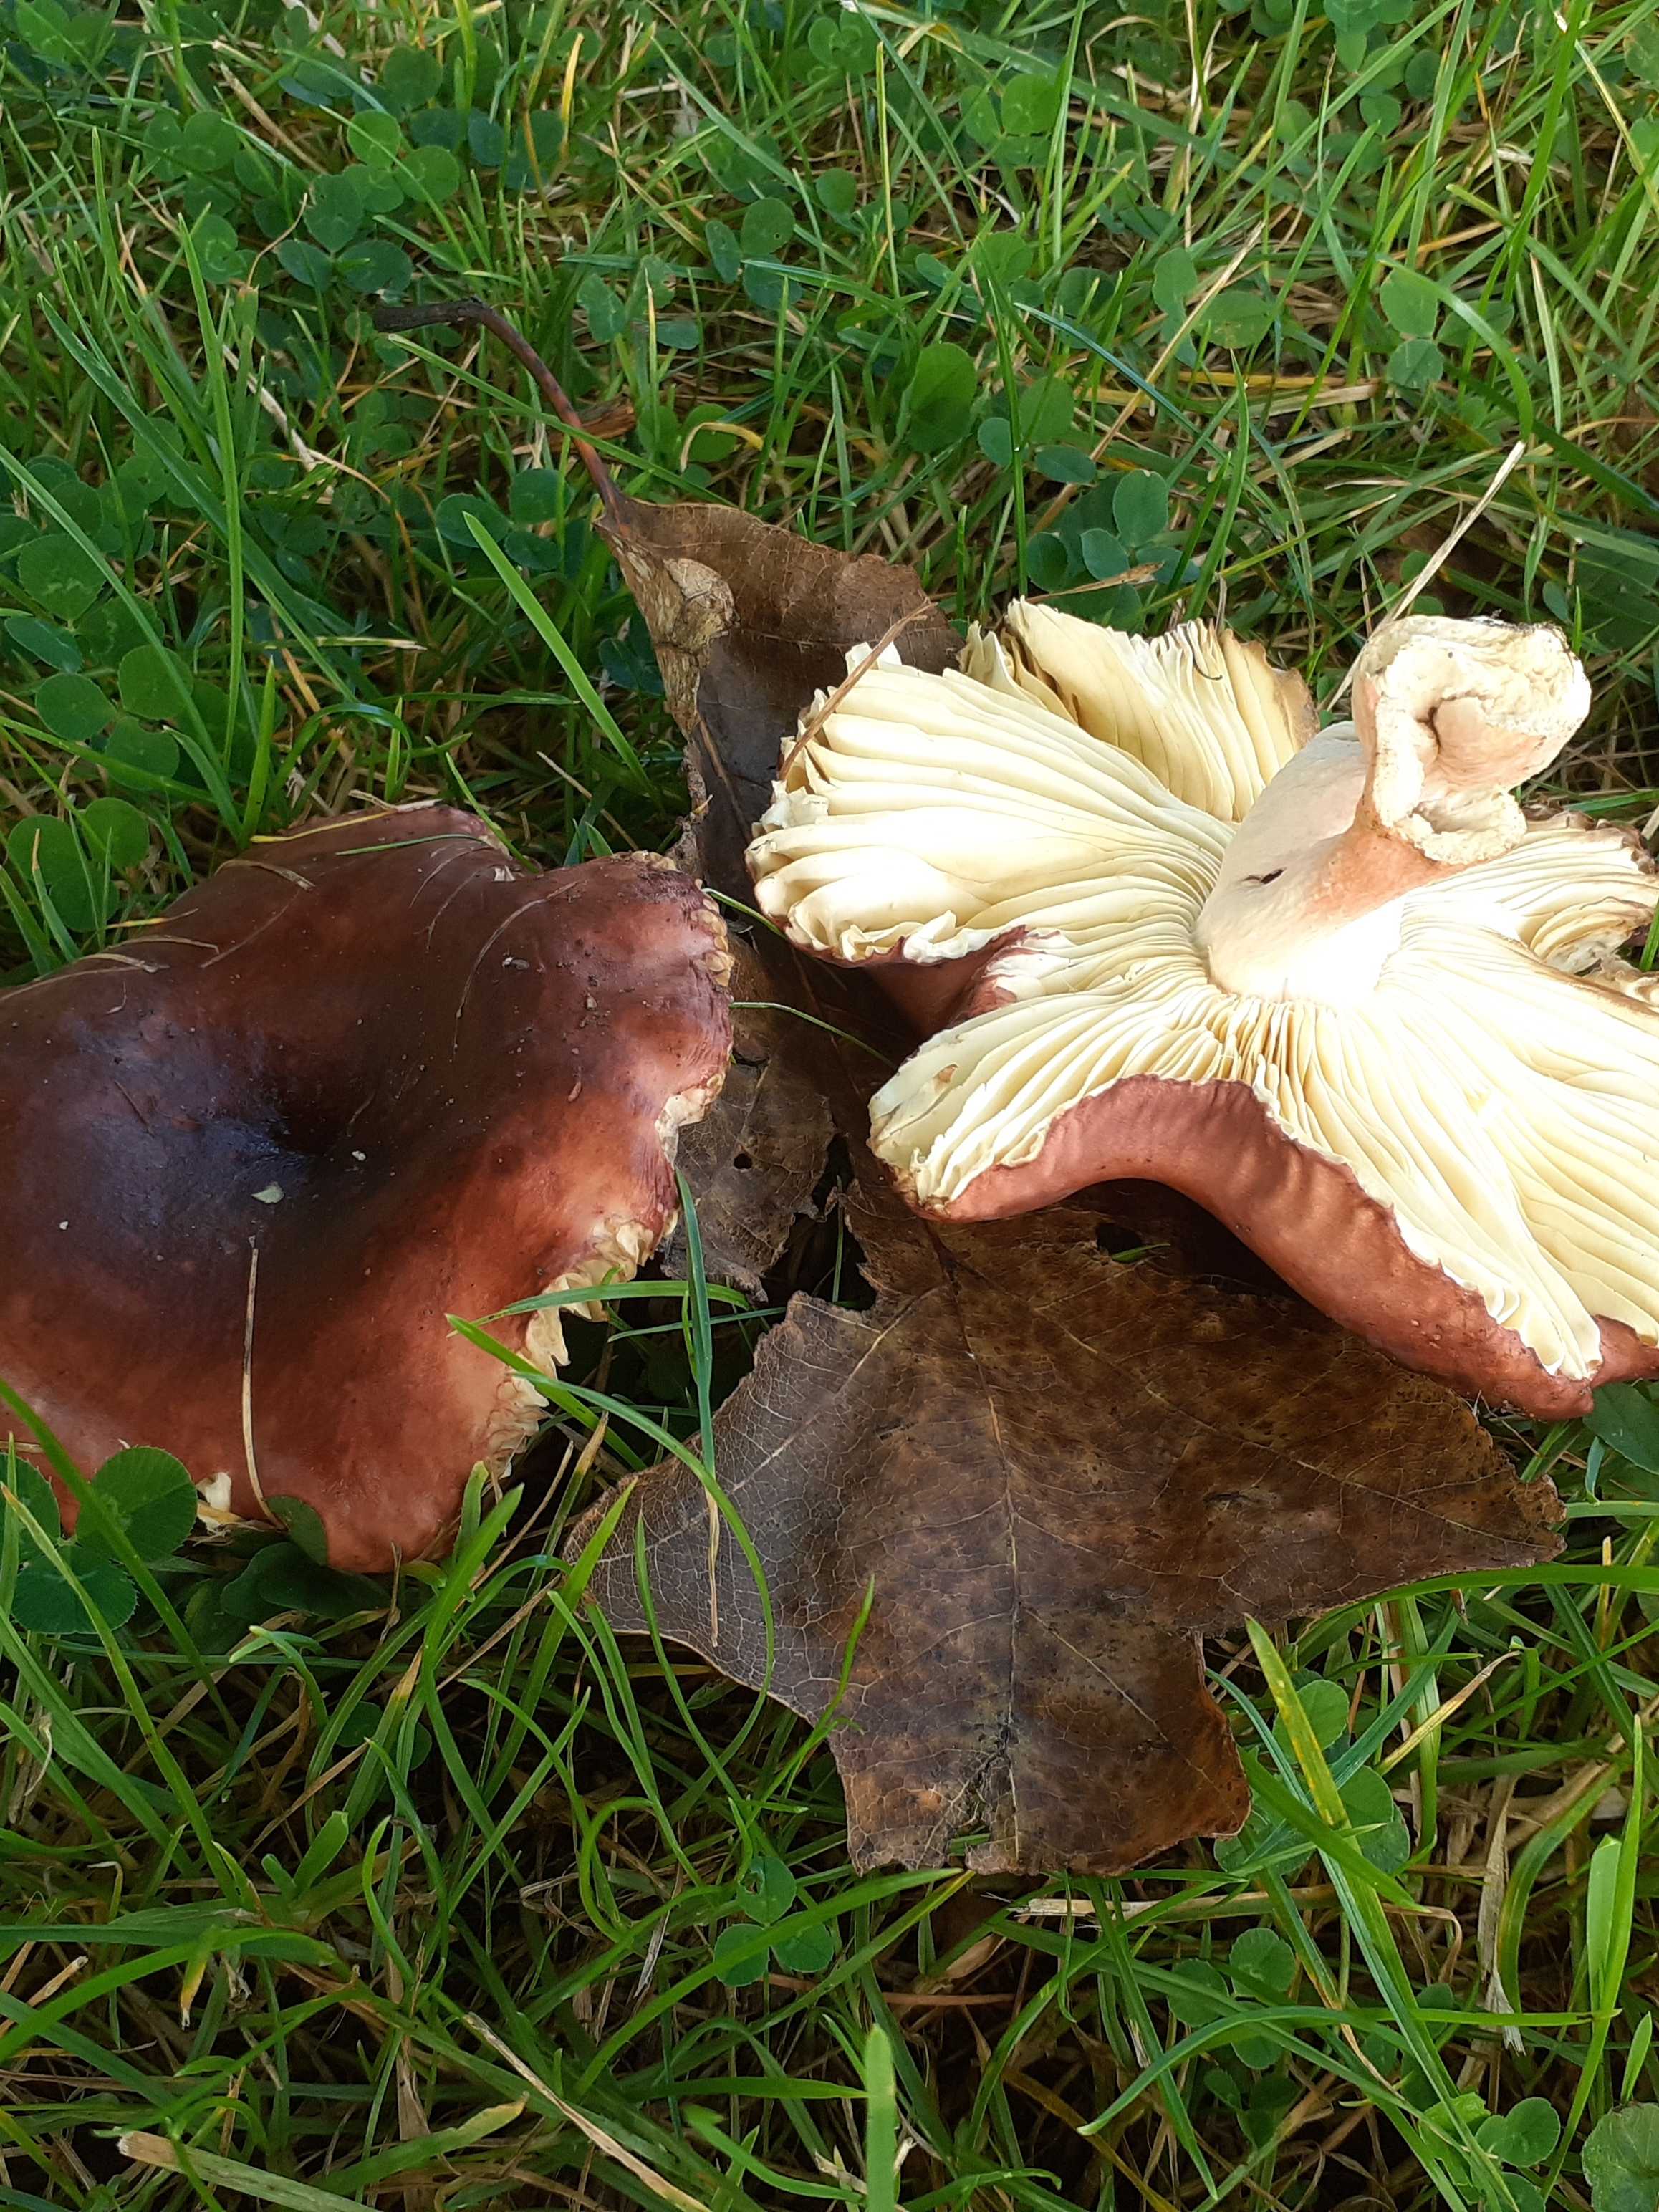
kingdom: Fungi
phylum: Basidiomycota
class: Agaricomycetes
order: Russulales
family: Russulaceae
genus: Russula
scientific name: Russula graveolens
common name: bugtet skørhat
